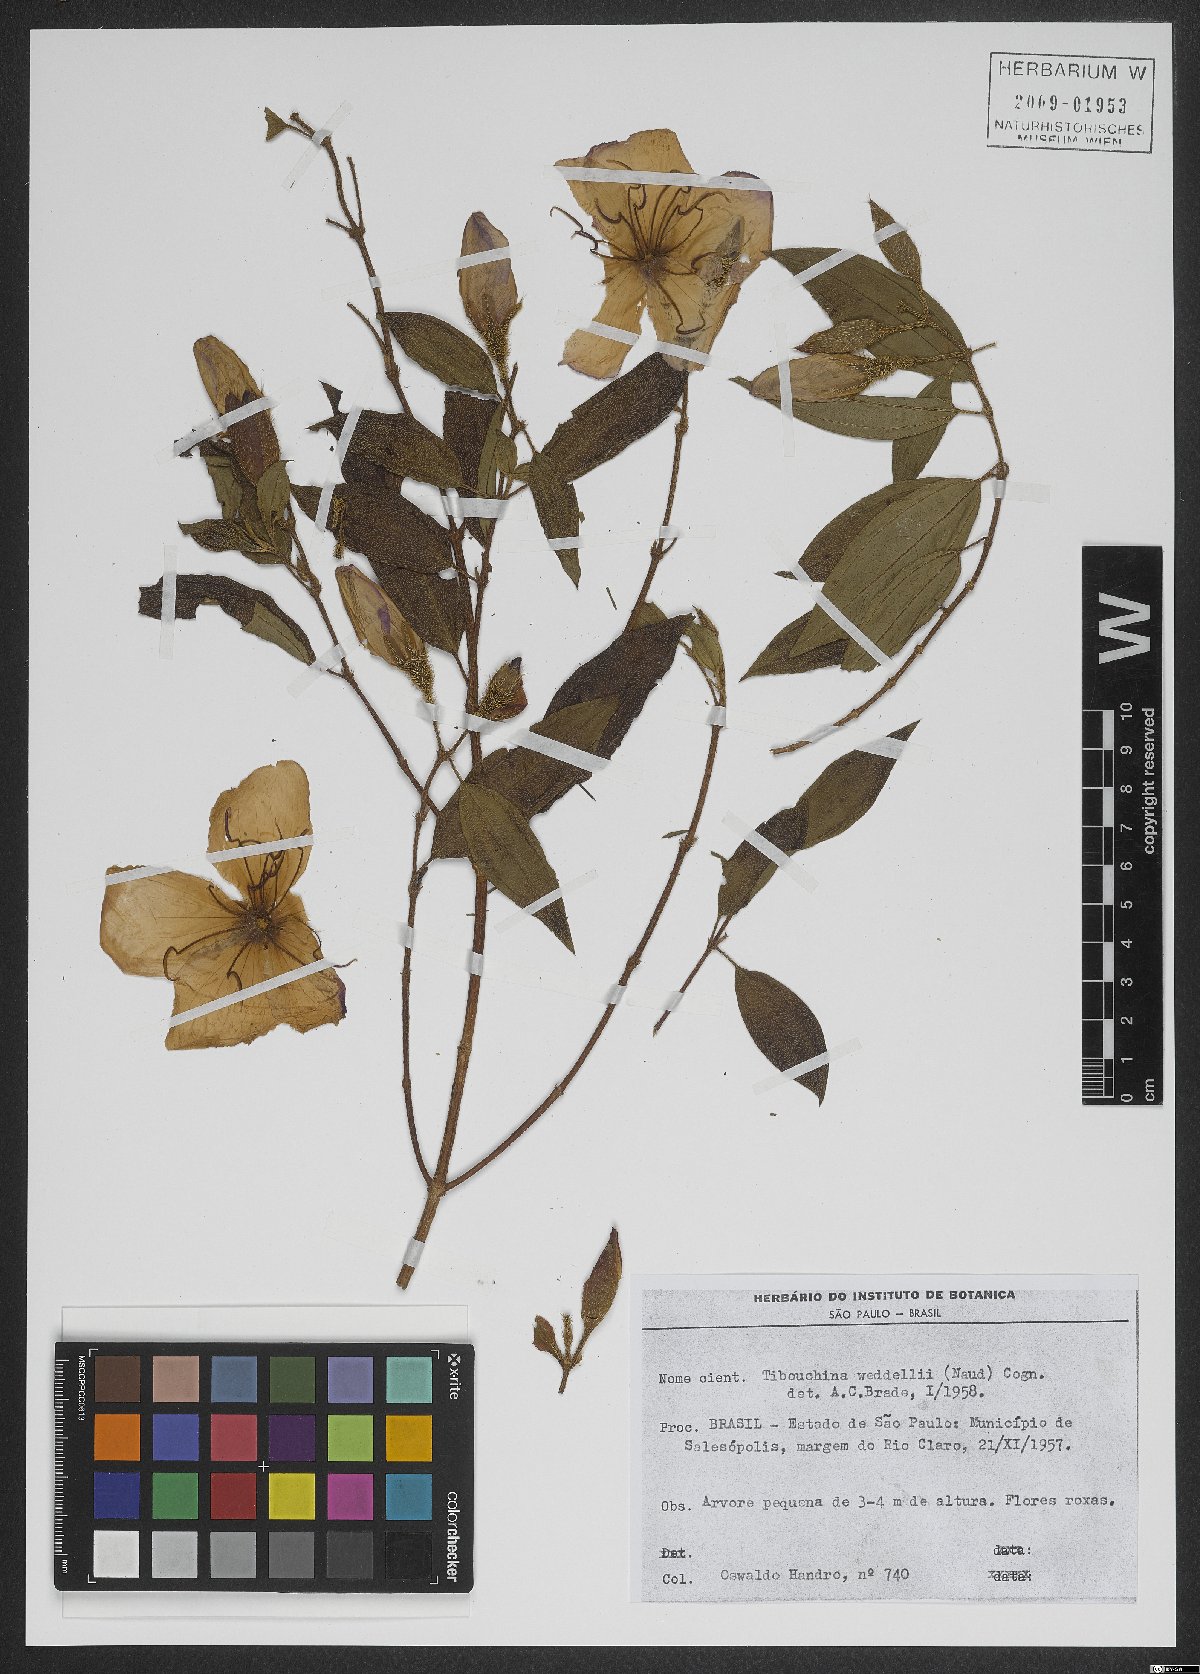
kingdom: Plantae
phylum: Tracheophyta
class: Magnoliopsida
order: Myrtales
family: Melastomataceae
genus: Pleroma
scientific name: Pleroma elegans
